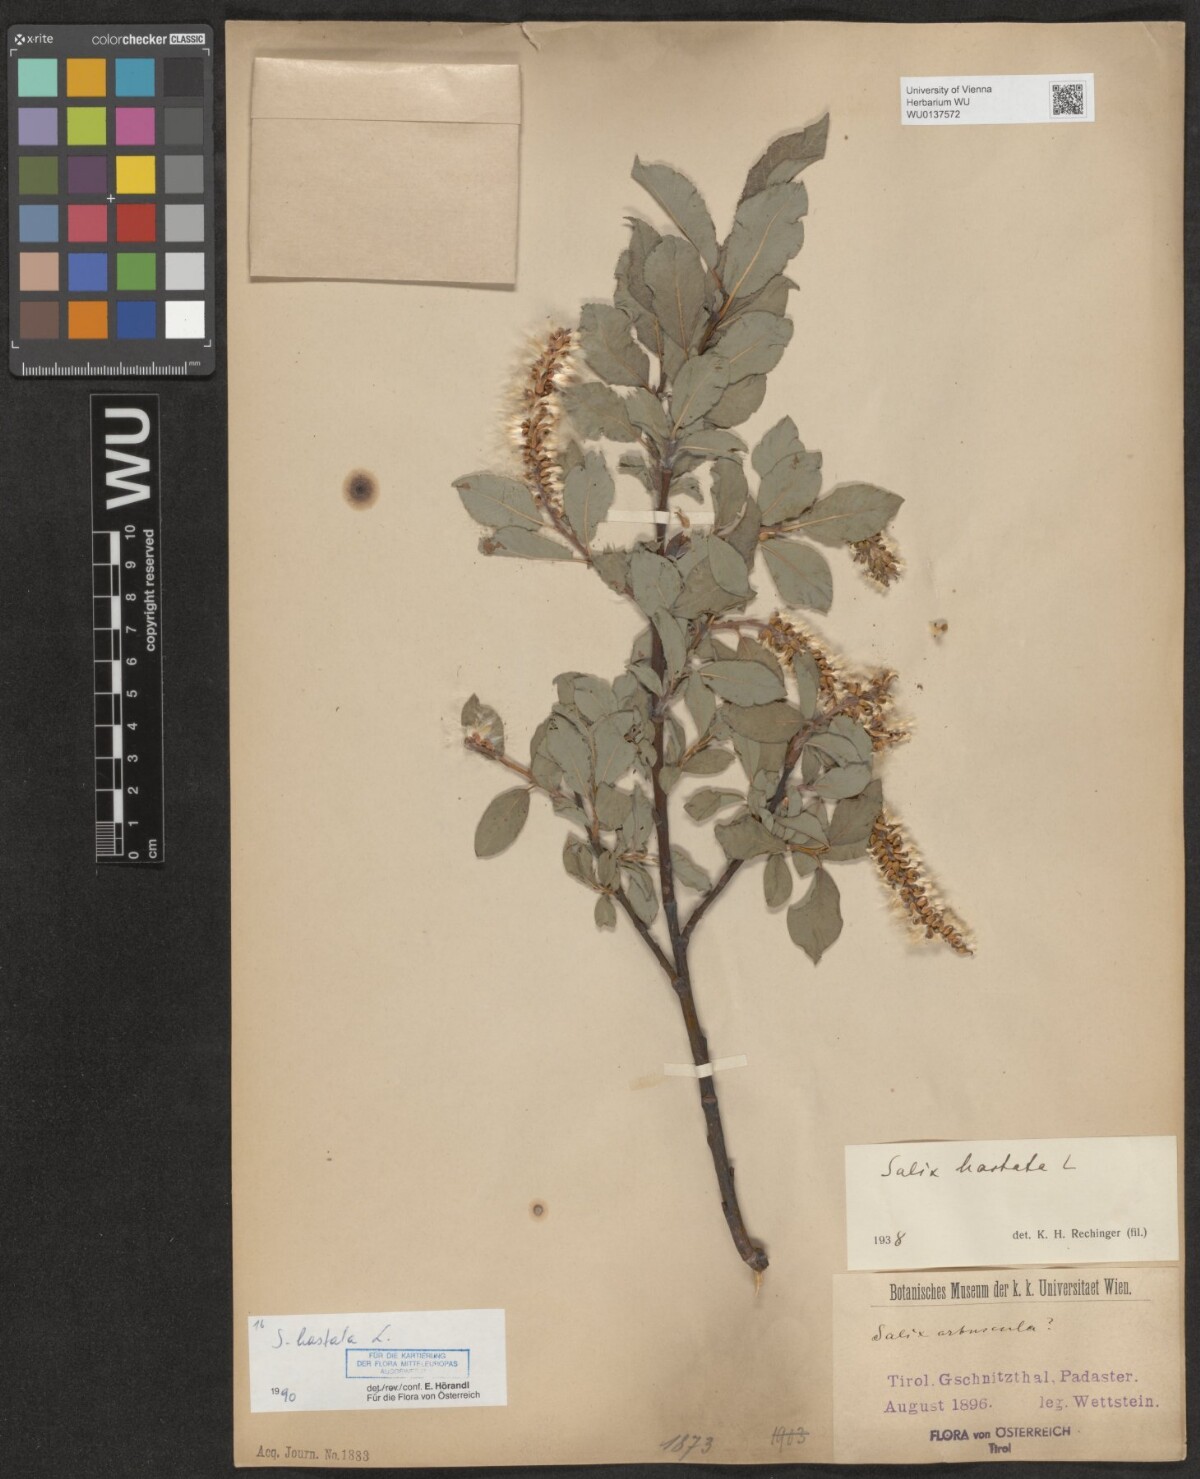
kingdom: Plantae
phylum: Tracheophyta
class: Magnoliopsida
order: Malpighiales
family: Salicaceae
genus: Salix
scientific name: Salix hastata
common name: Halberd willow
